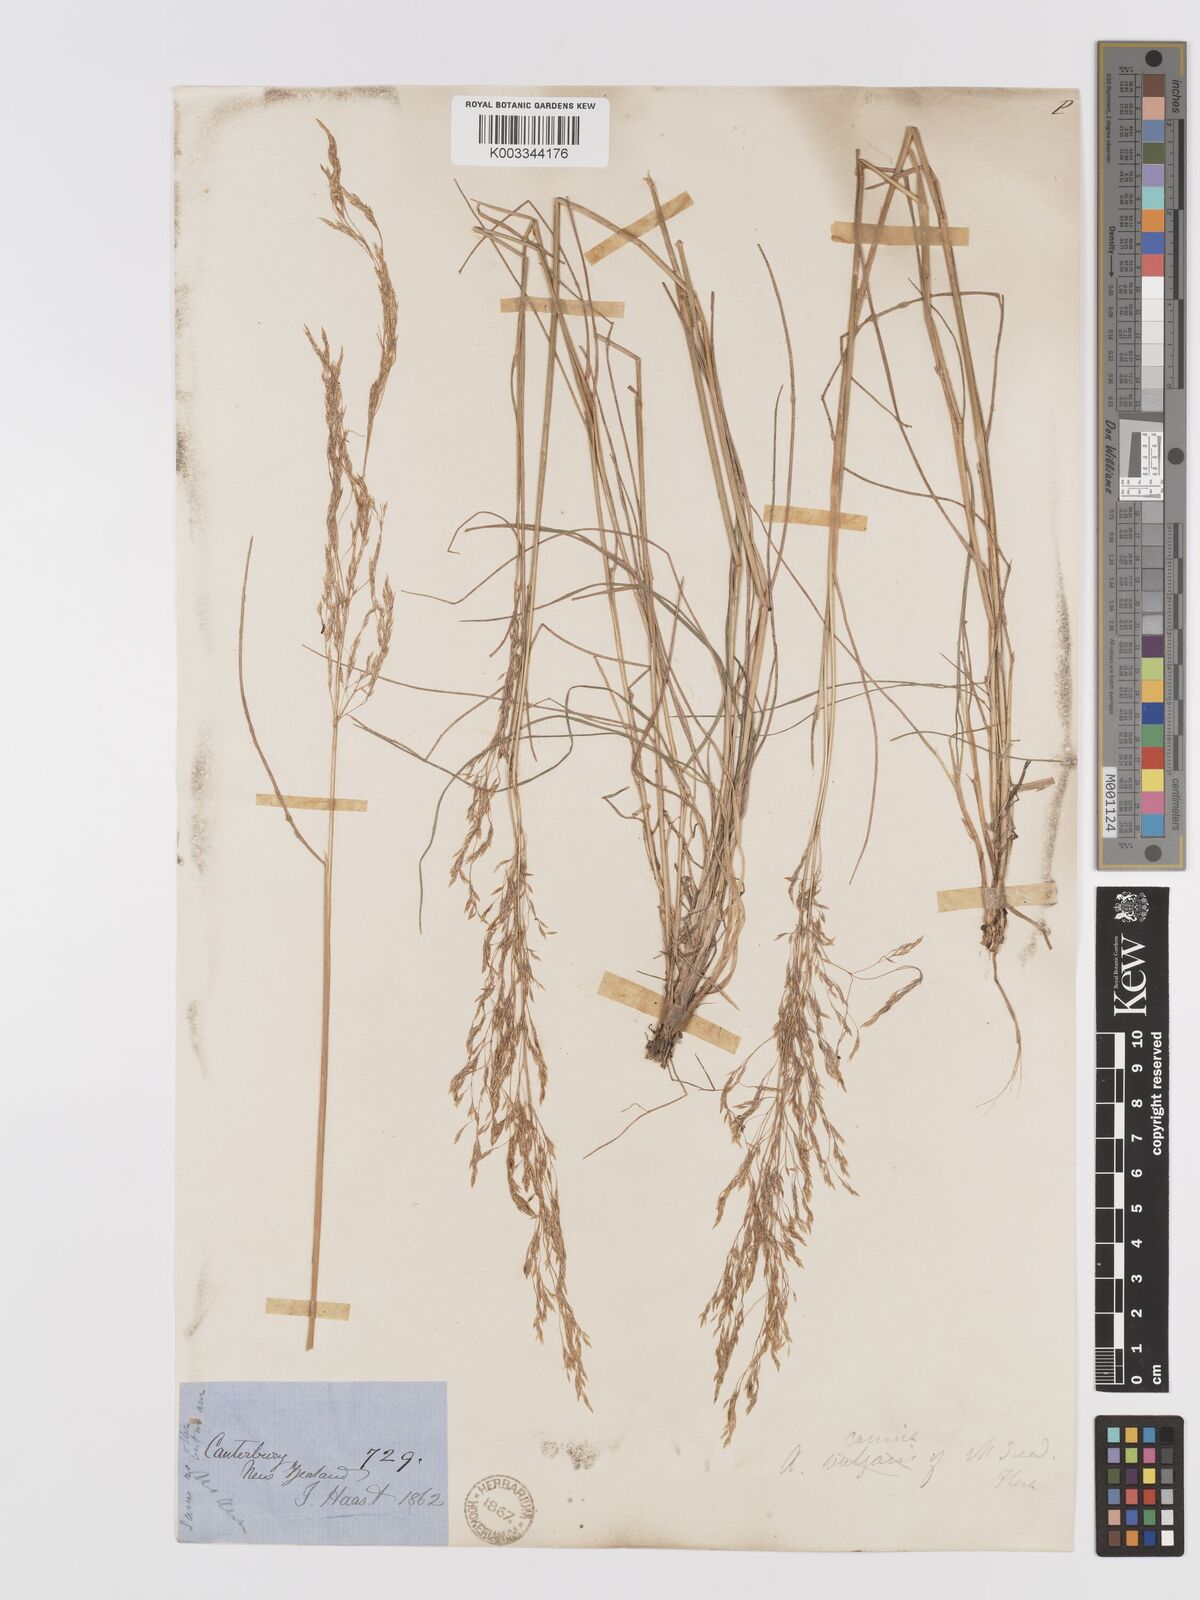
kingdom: Plantae
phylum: Tracheophyta
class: Liliopsida
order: Poales
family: Poaceae
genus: Agrostis
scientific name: Agrostis personata
